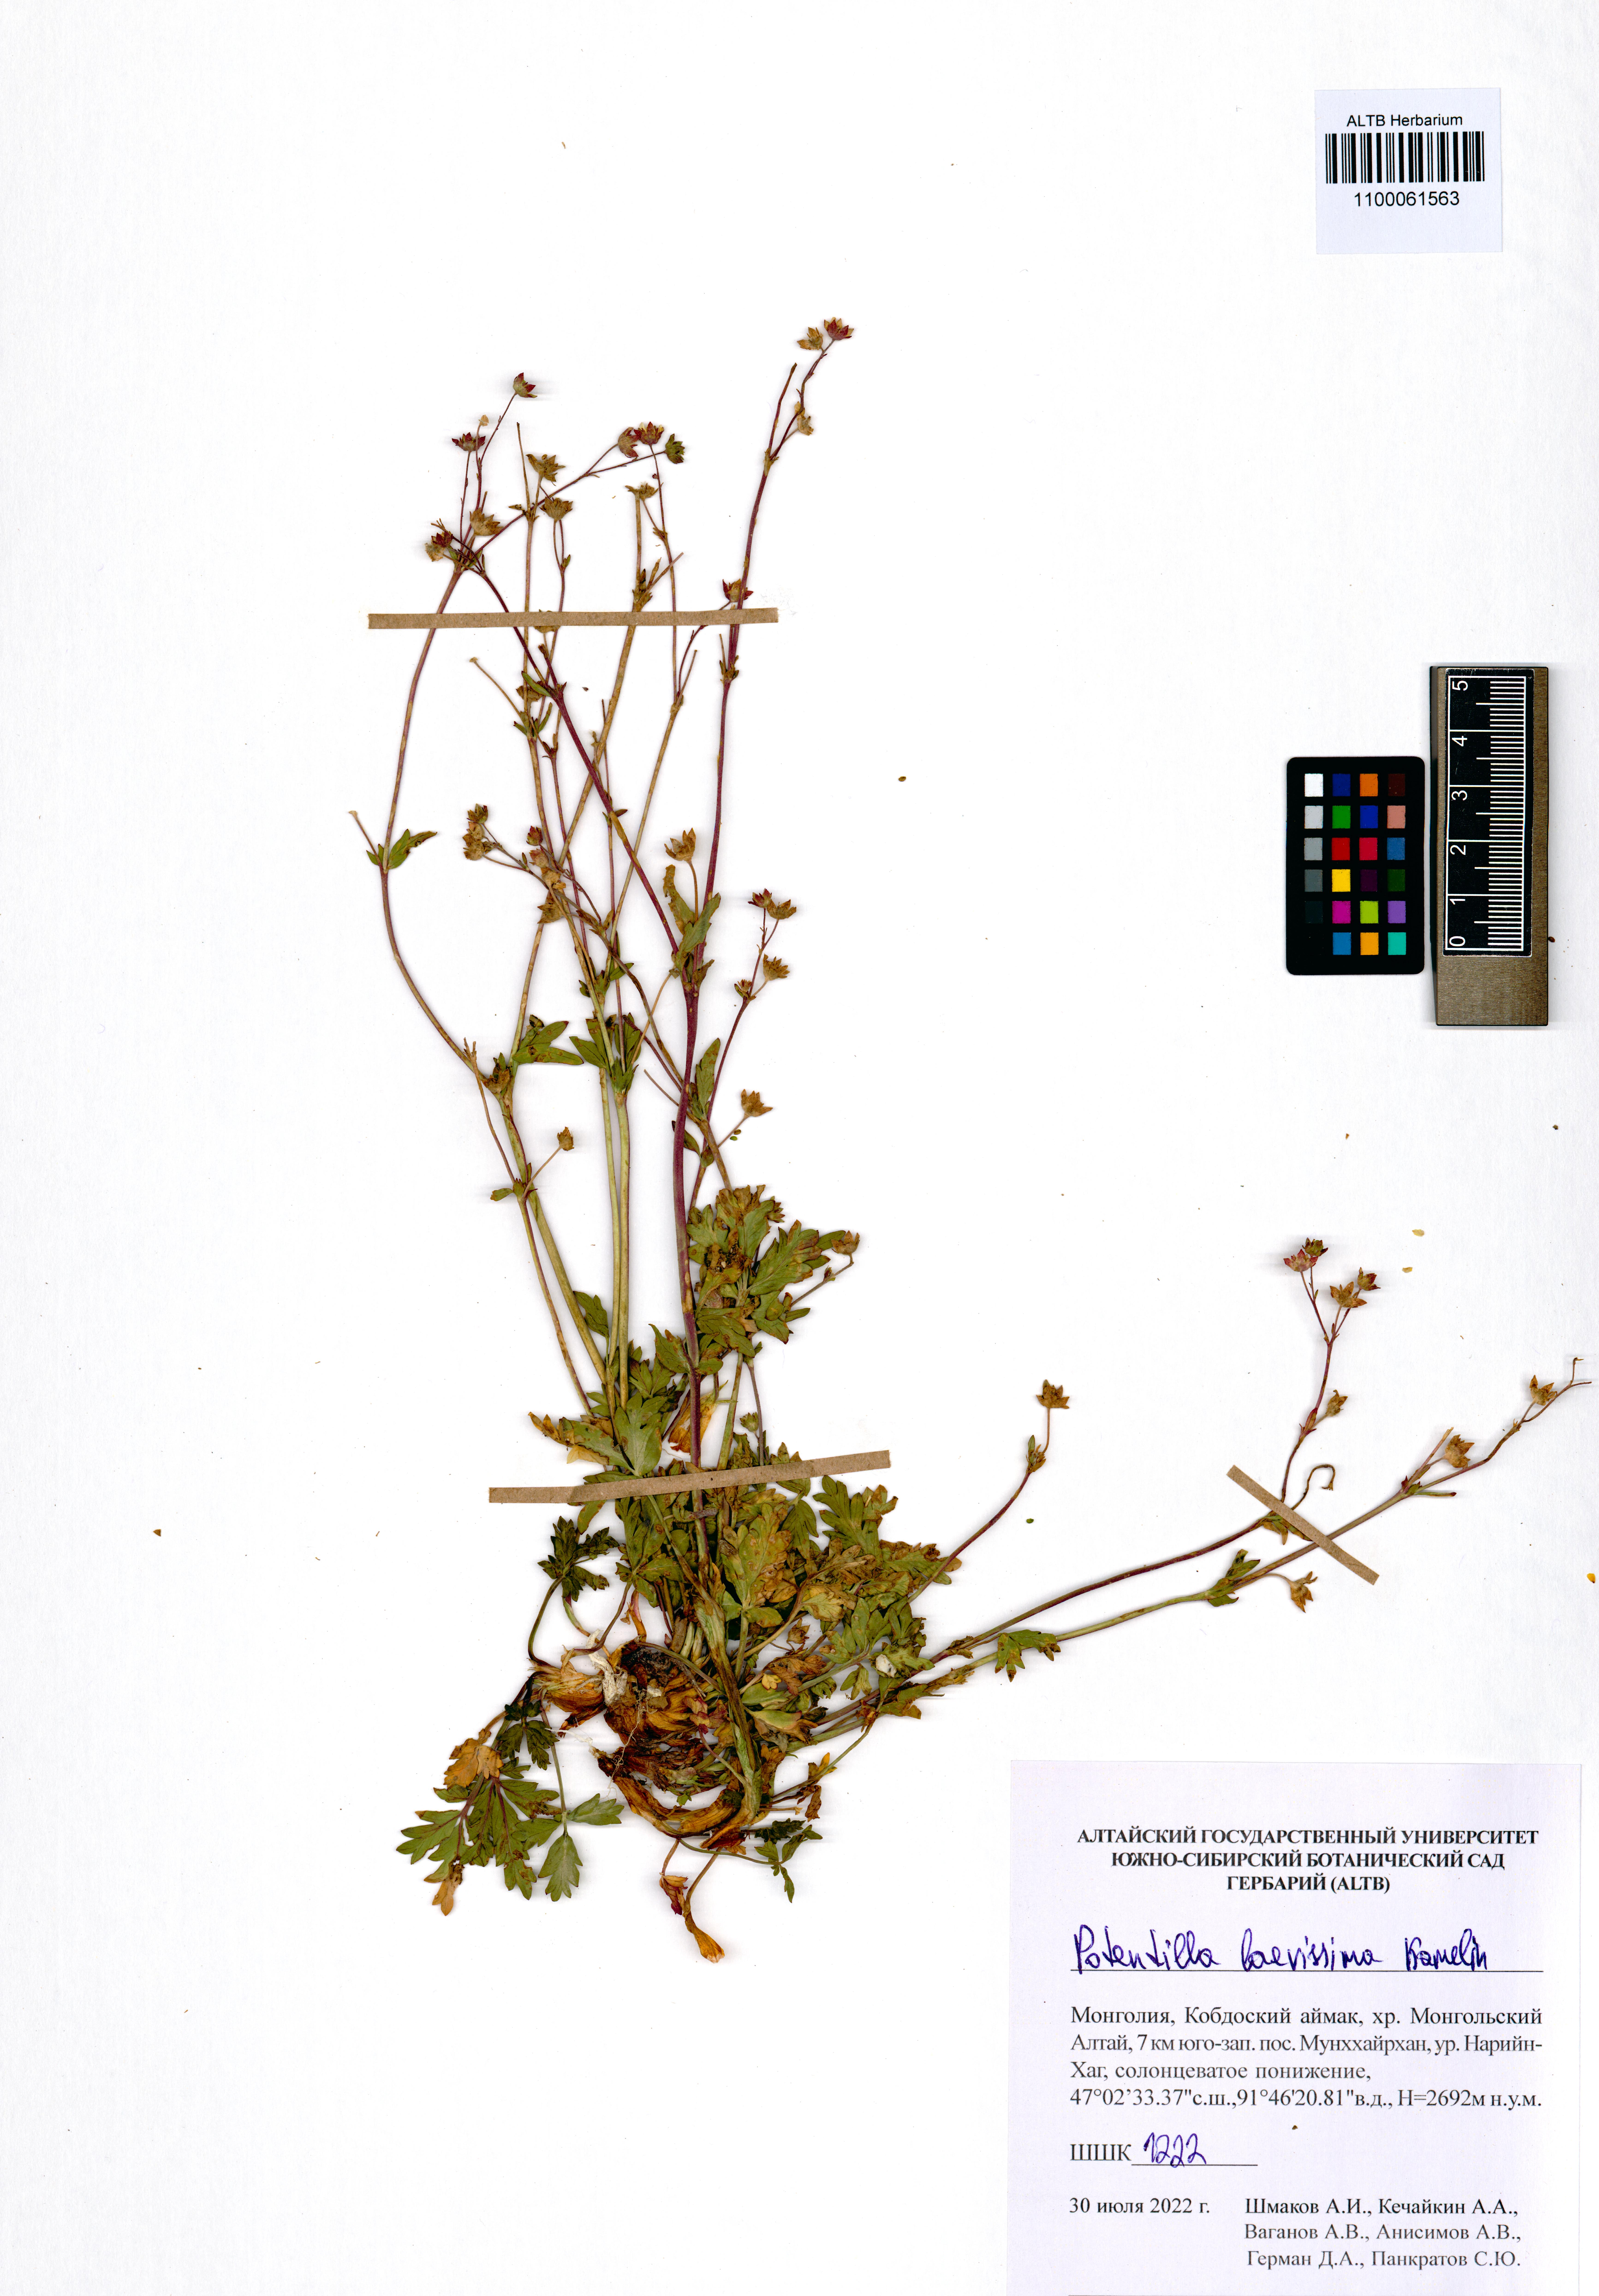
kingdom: Plantae
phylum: Tracheophyta
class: Magnoliopsida
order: Rosales
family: Rosaceae
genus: Potentilla
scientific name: Potentilla laevissima
